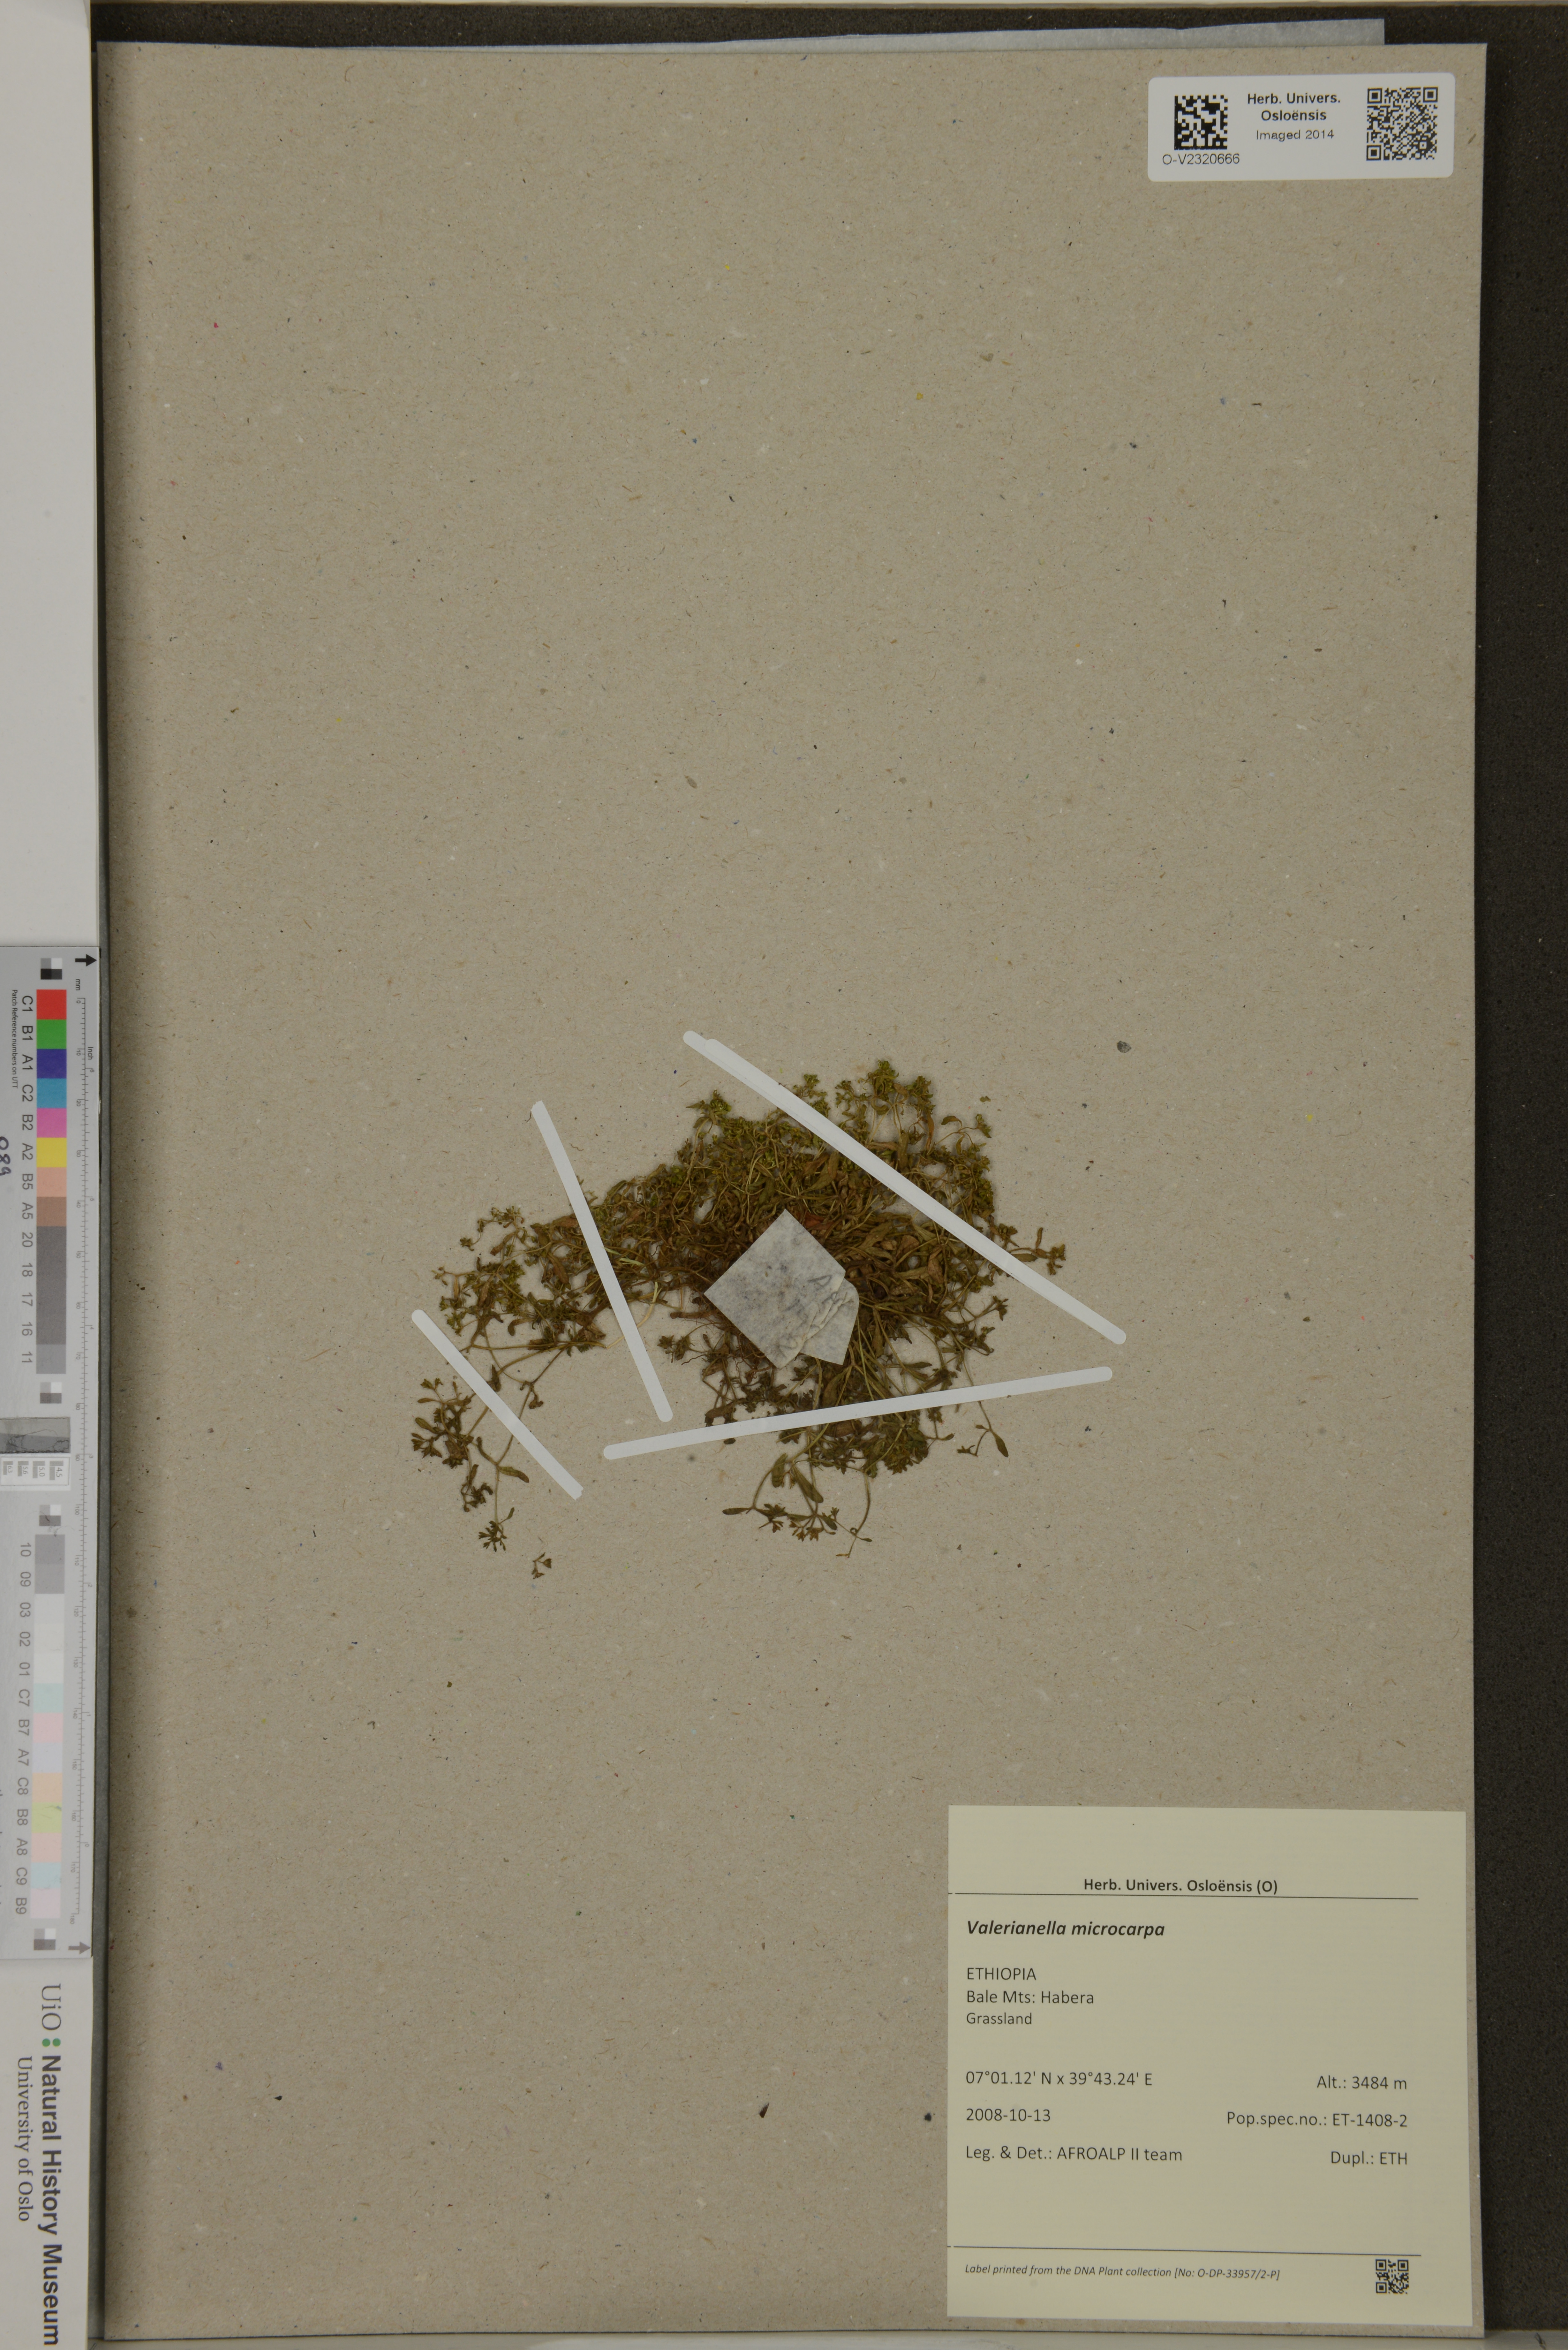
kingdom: Plantae
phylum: Tracheophyta
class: Magnoliopsida
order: Dipsacales
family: Caprifoliaceae
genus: Valerianella
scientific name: Valerianella microcarpa
